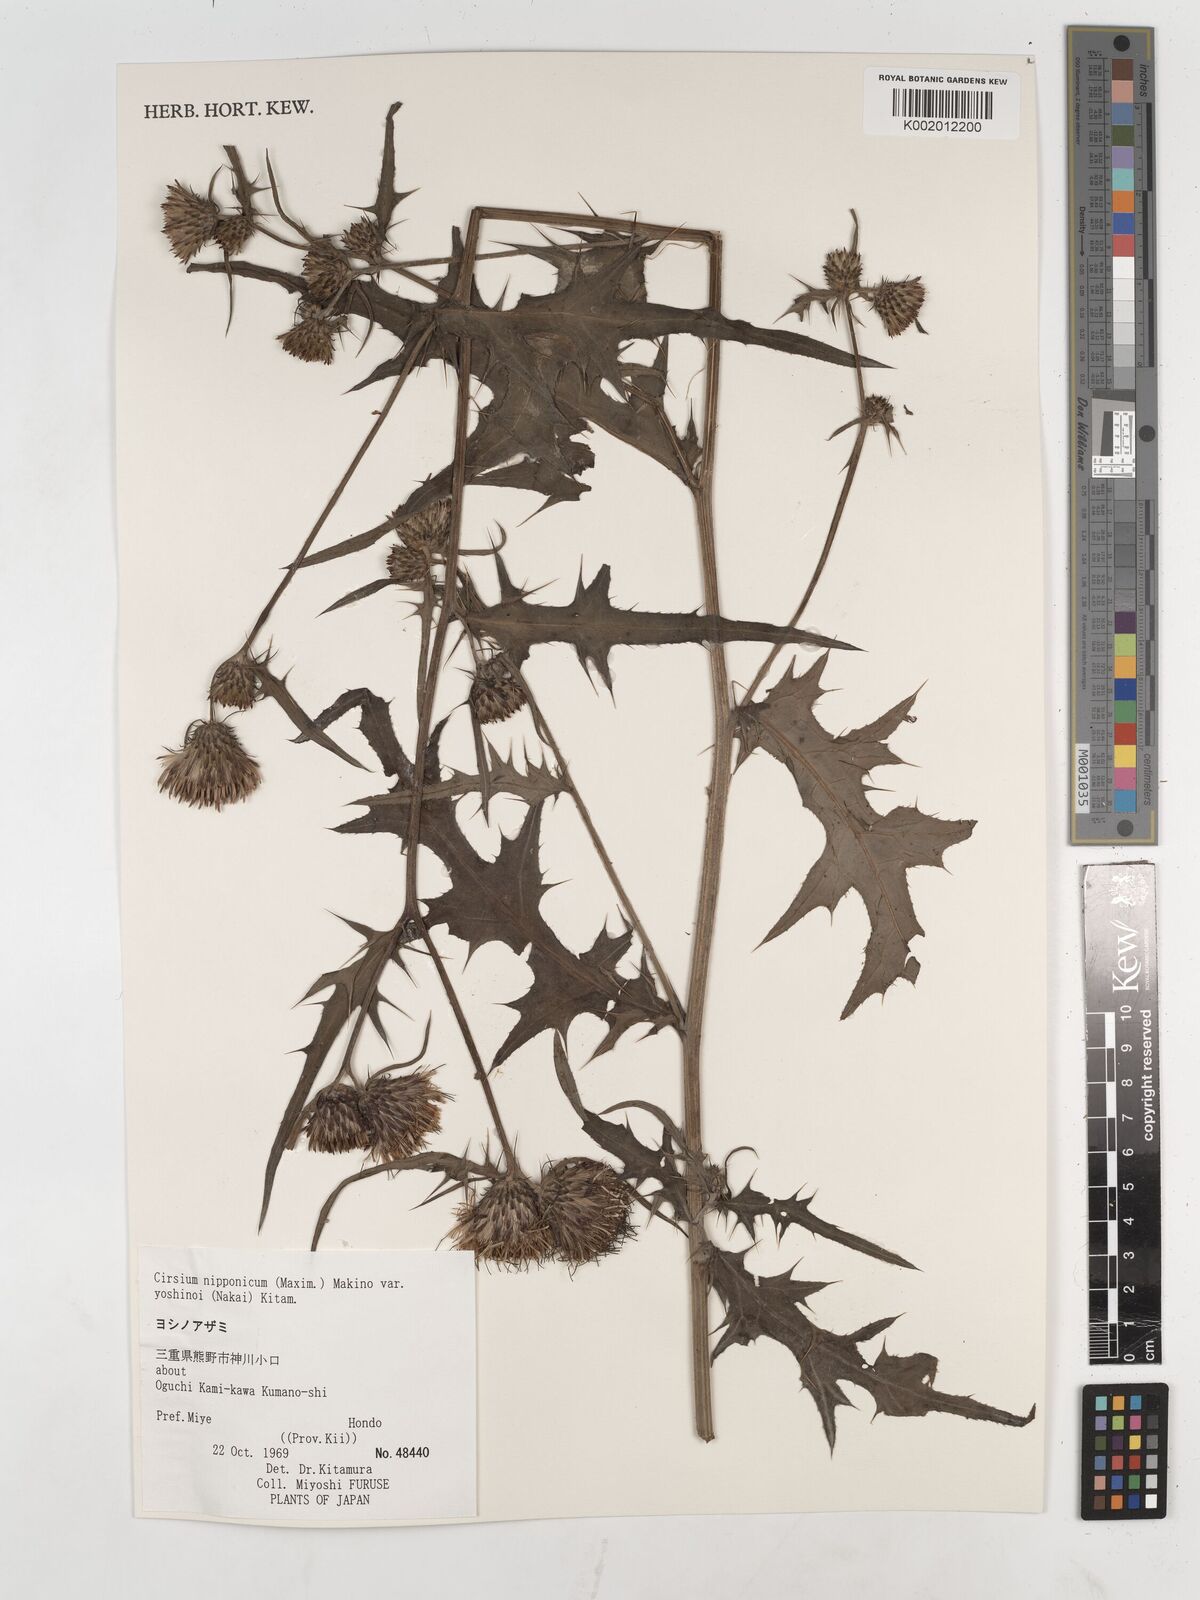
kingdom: Plantae
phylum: Tracheophyta
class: Magnoliopsida
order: Asterales
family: Asteraceae
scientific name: Asteraceae
